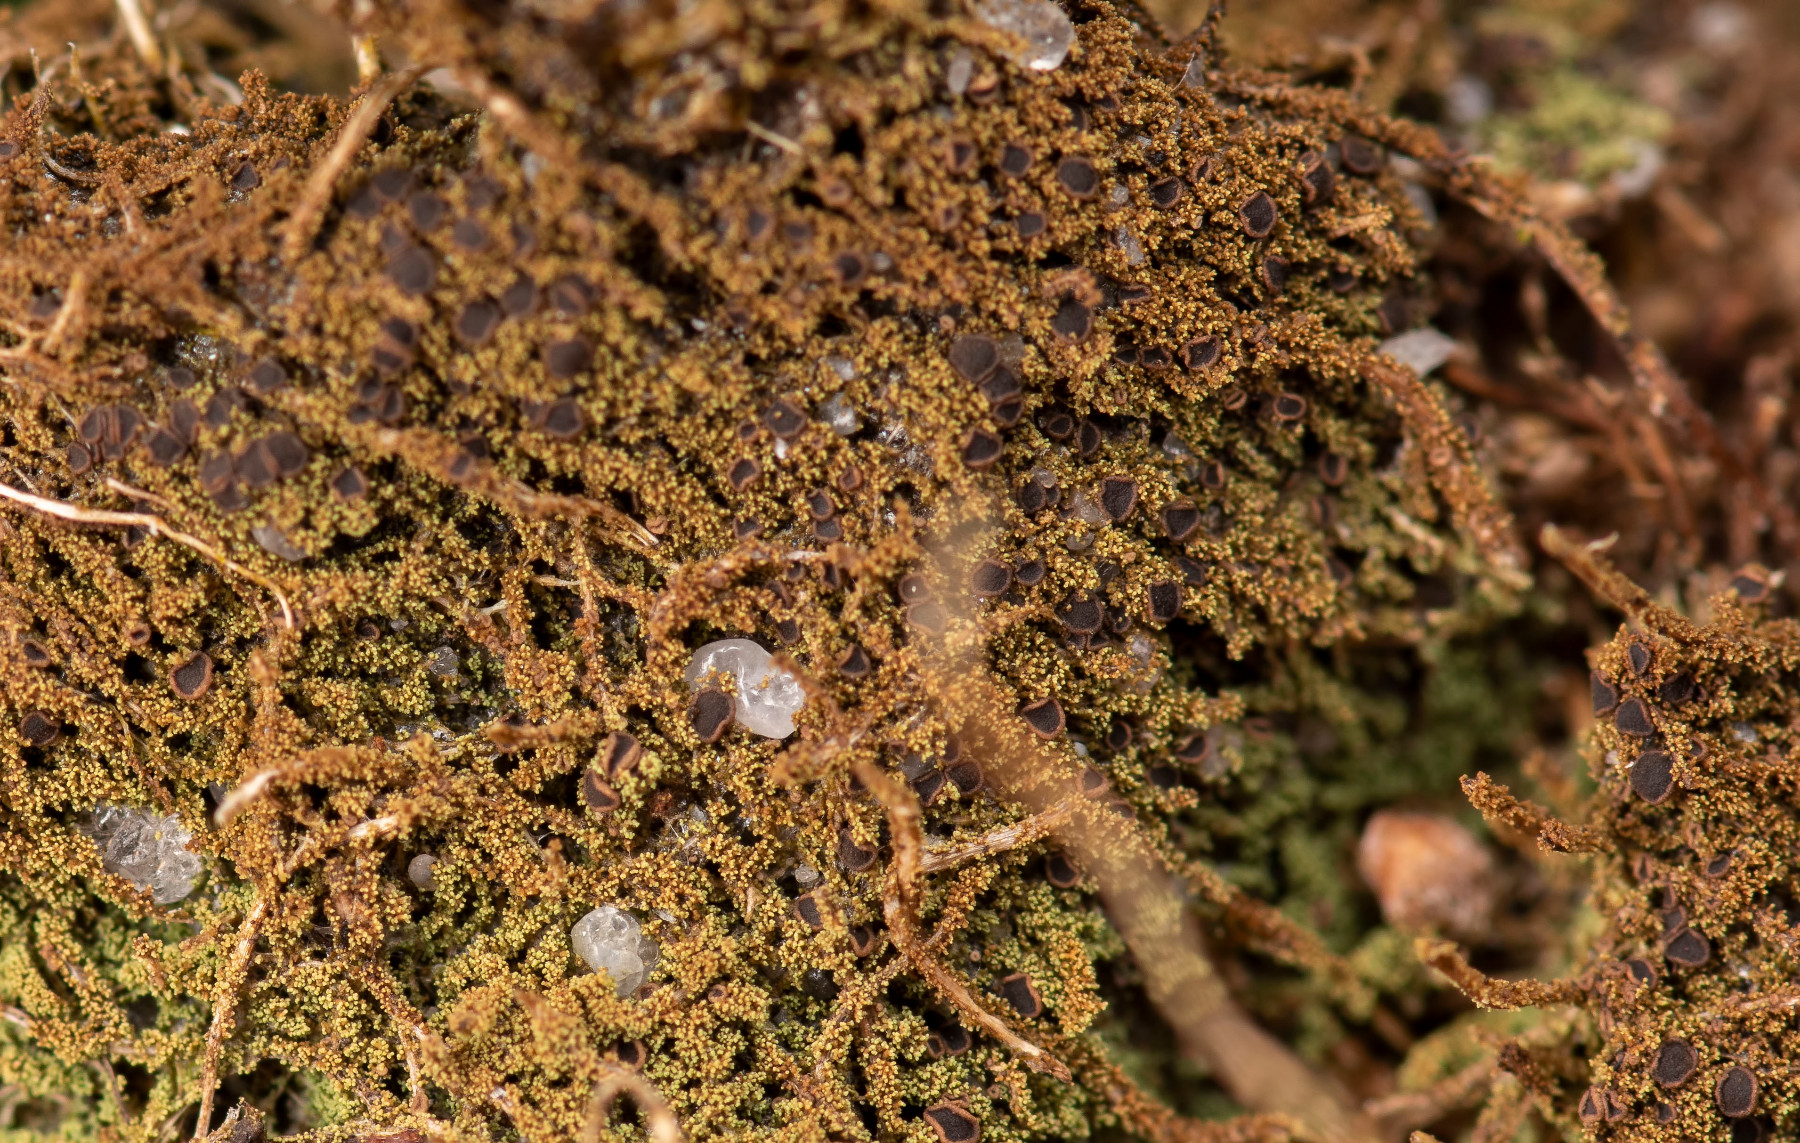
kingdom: Fungi
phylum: Ascomycota
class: Lecanoromycetes
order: Baeomycetales
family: Trapeliaceae
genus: Placynthiella
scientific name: Placynthiella icmalea
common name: stift-skivelav
